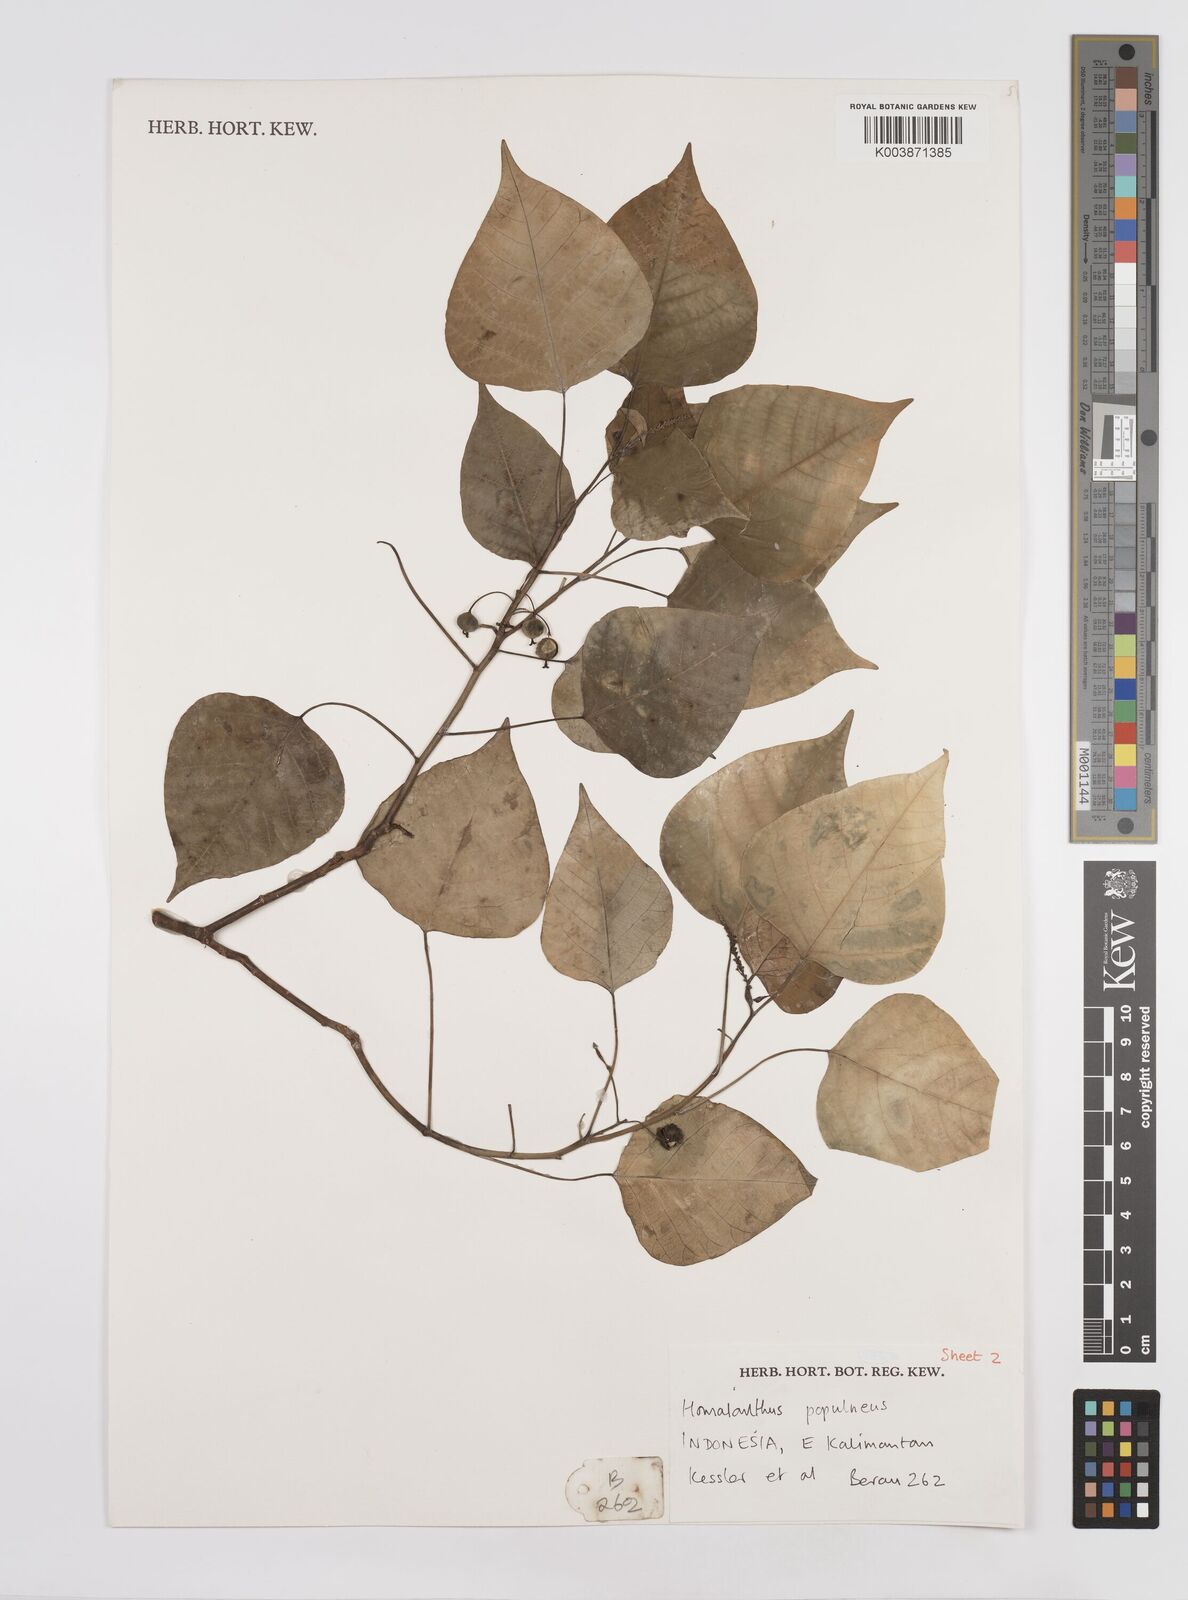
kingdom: Plantae
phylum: Tracheophyta
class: Magnoliopsida
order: Malpighiales
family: Euphorbiaceae
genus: Homalanthus
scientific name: Homalanthus populneus
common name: Spurge
